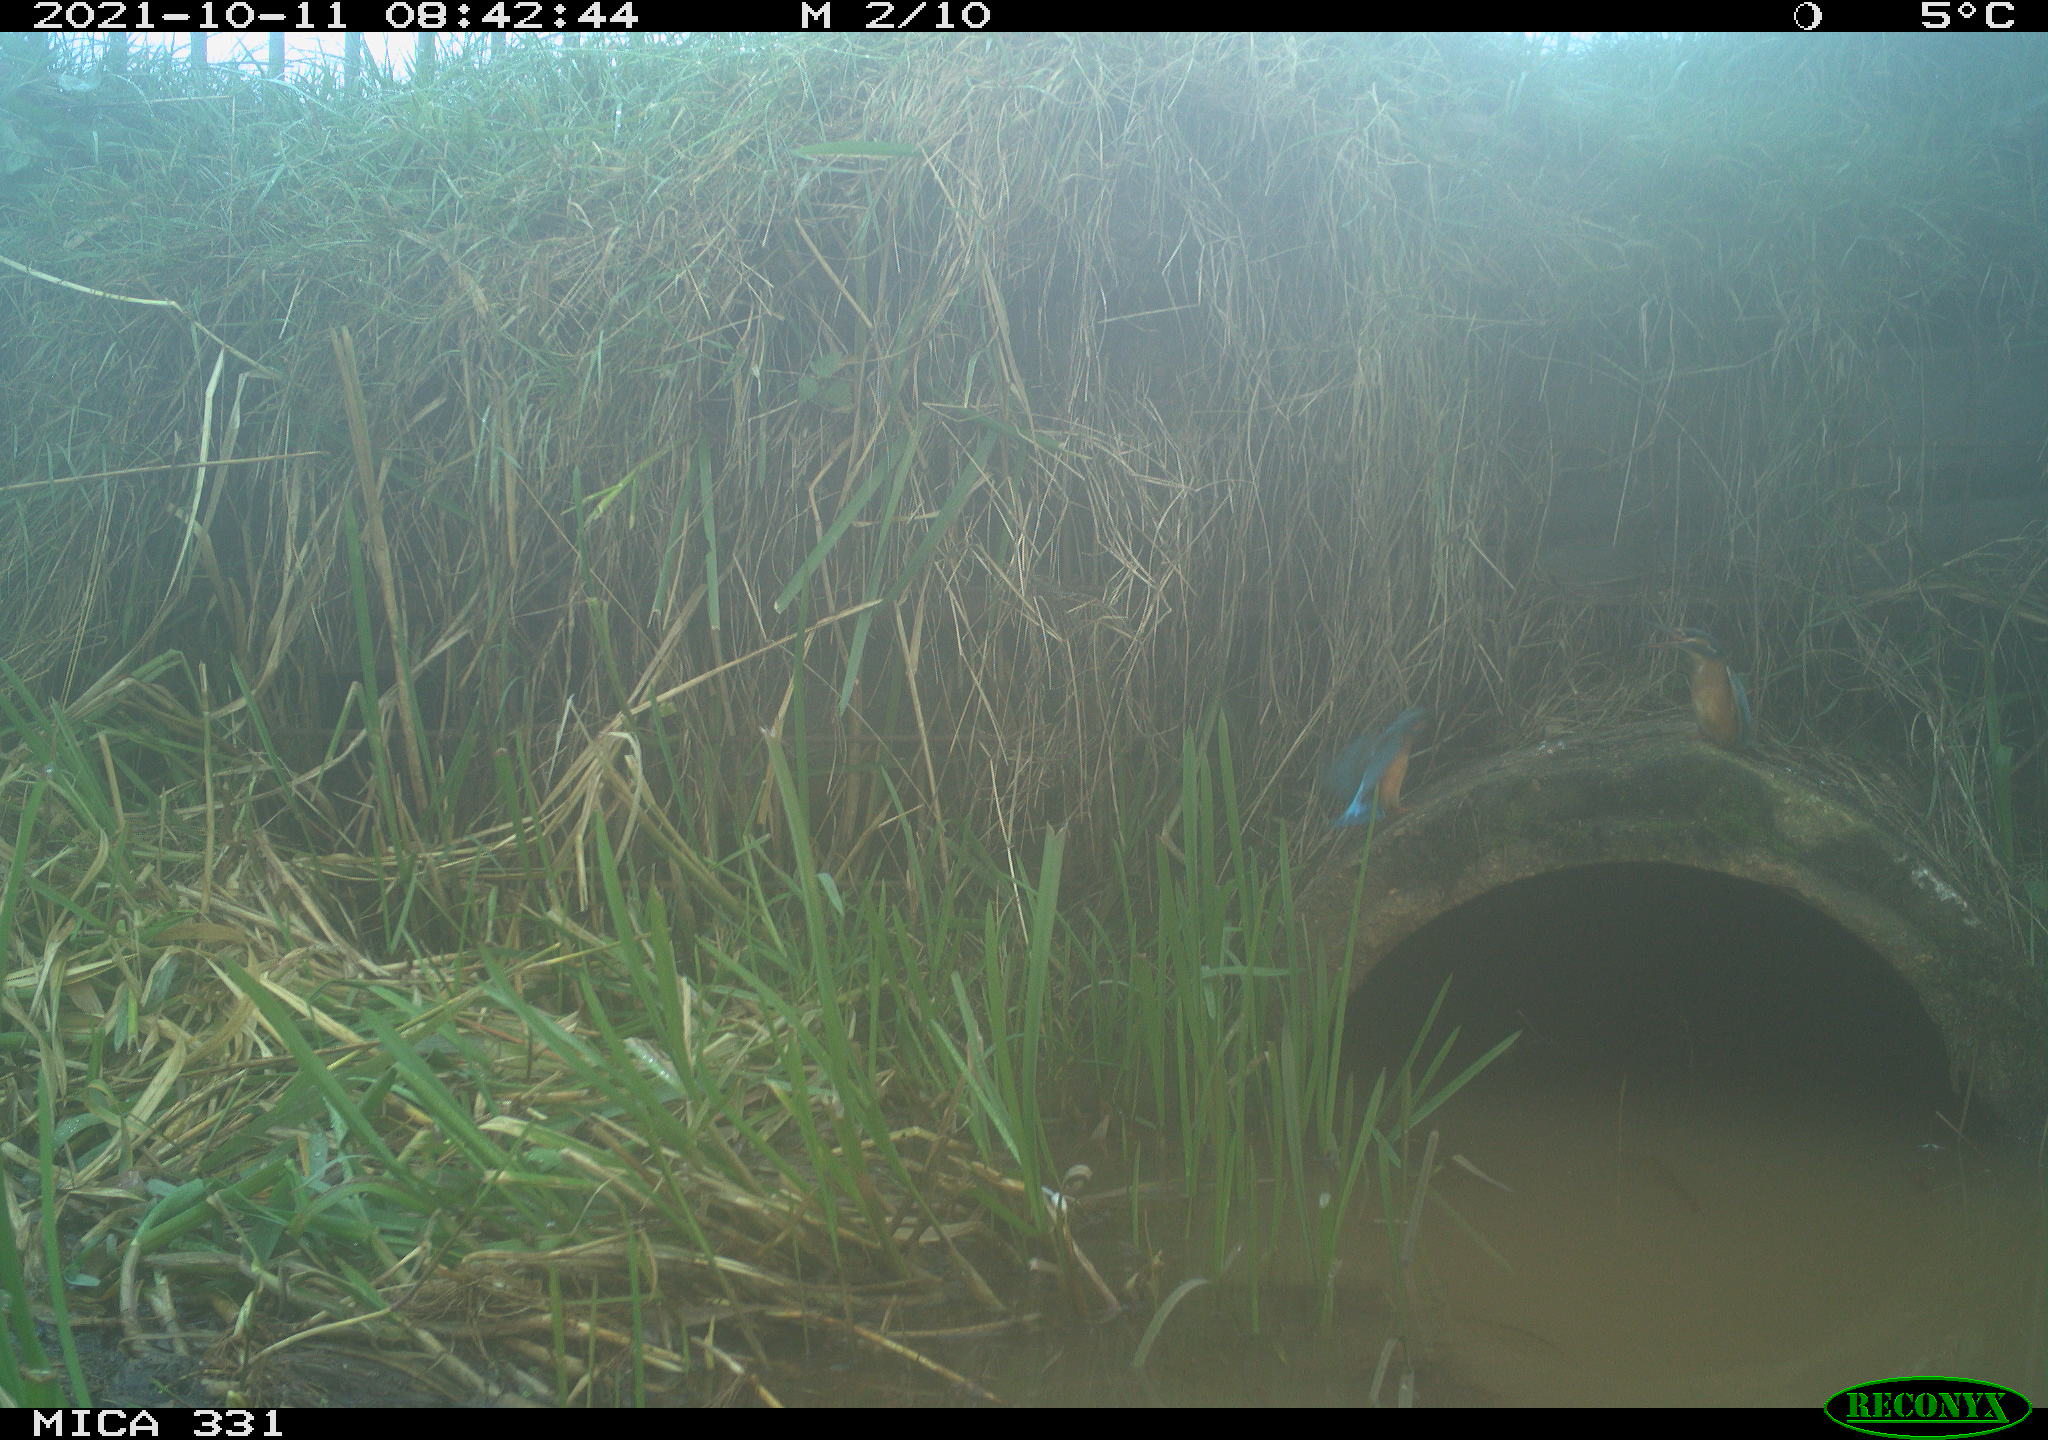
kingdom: Animalia
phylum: Chordata
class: Aves
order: Coraciiformes
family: Alcedinidae
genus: Alcedo
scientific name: Alcedo atthis
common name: Common kingfisher
